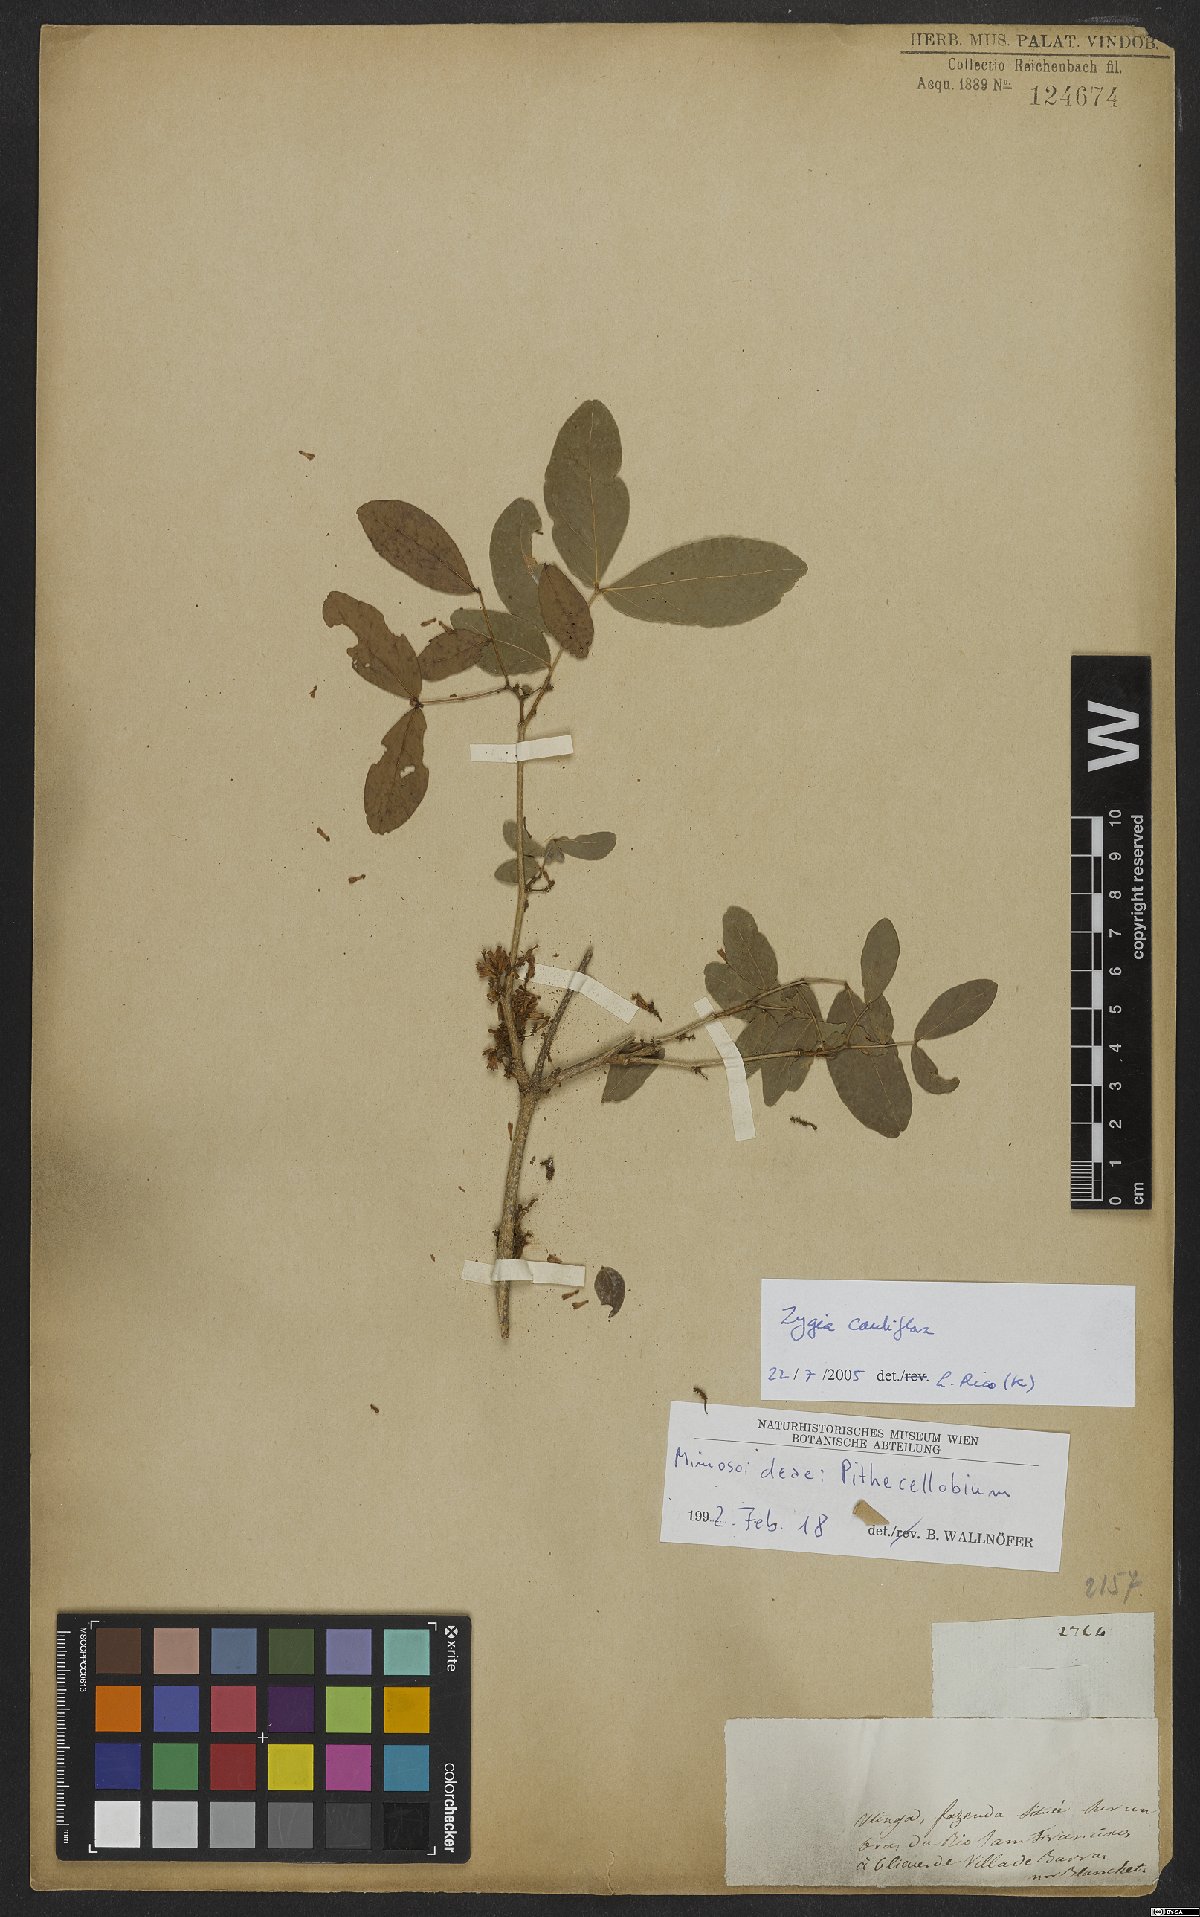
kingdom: Plantae
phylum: Tracheophyta
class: Magnoliopsida
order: Fabales
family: Fabaceae
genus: Zygia
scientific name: Zygia cauliflora
